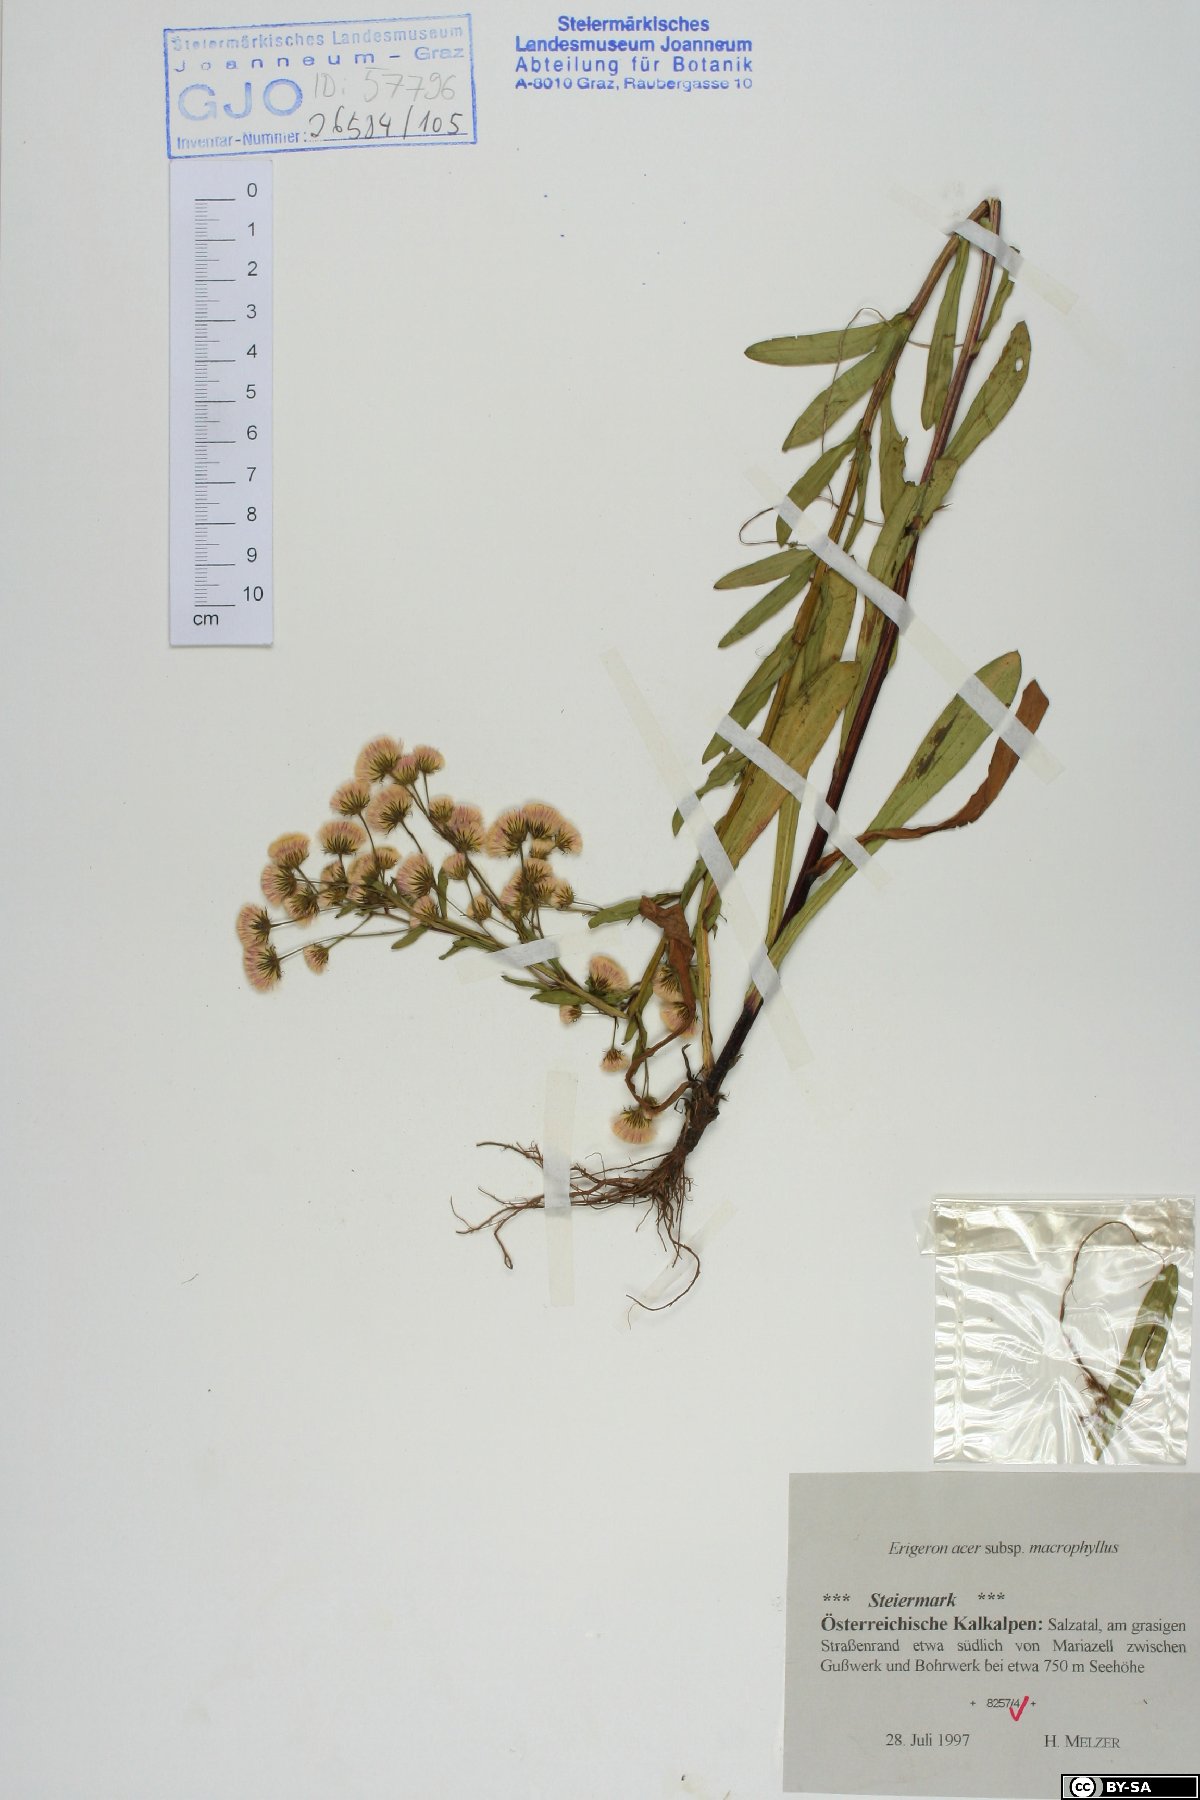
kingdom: Plantae
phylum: Tracheophyta
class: Magnoliopsida
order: Asterales
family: Asteraceae
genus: Erigeron
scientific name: Erigeron macrophyllus
